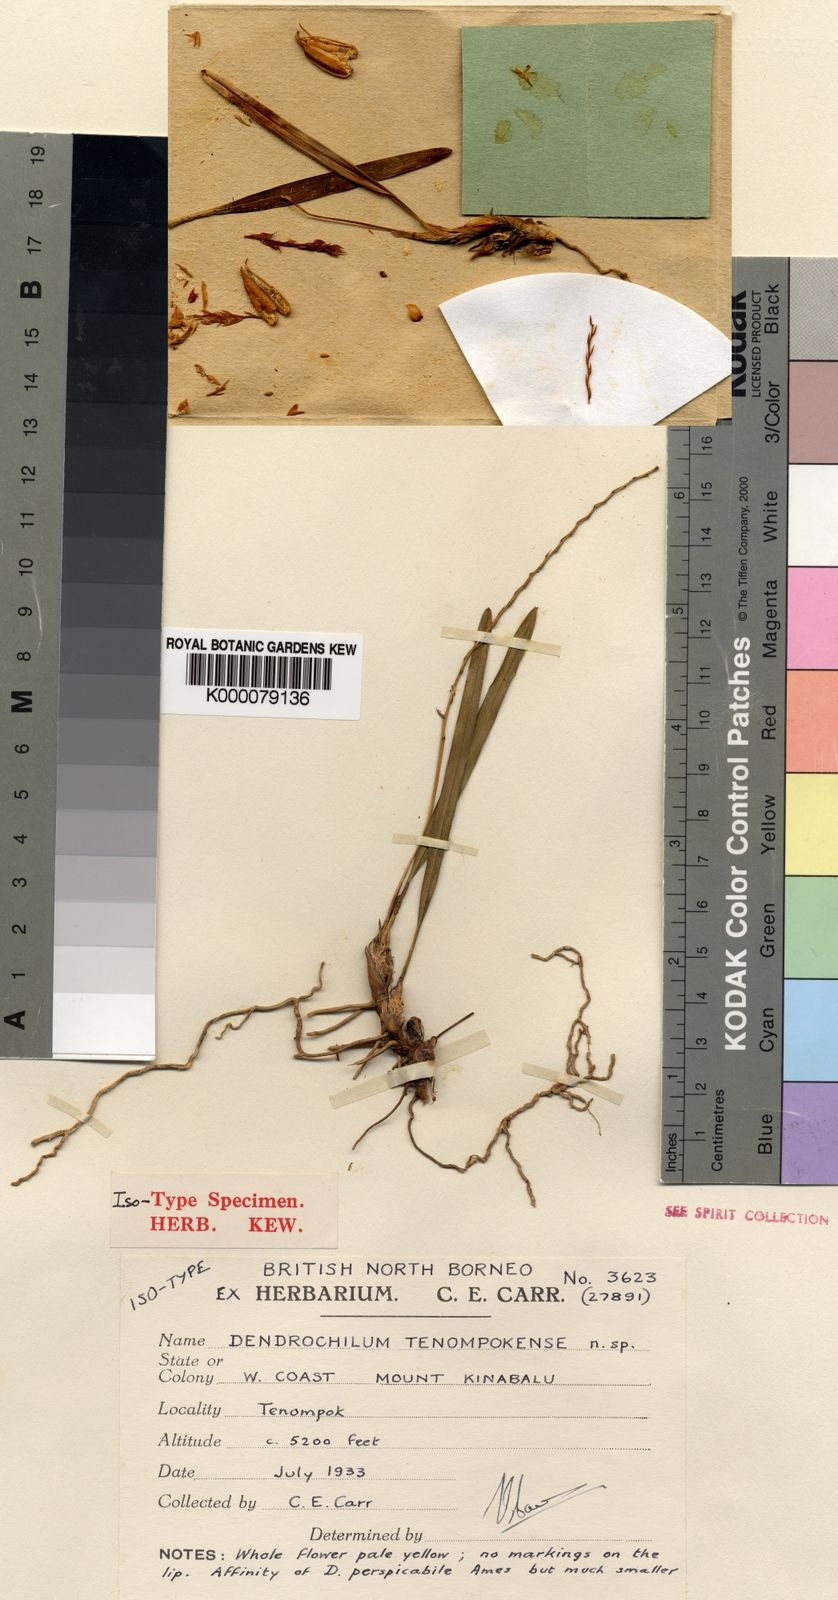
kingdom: Plantae
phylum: Tracheophyta
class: Liliopsida
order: Asparagales
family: Orchidaceae
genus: Coelogyne
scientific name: Coelogyne papillilabia
